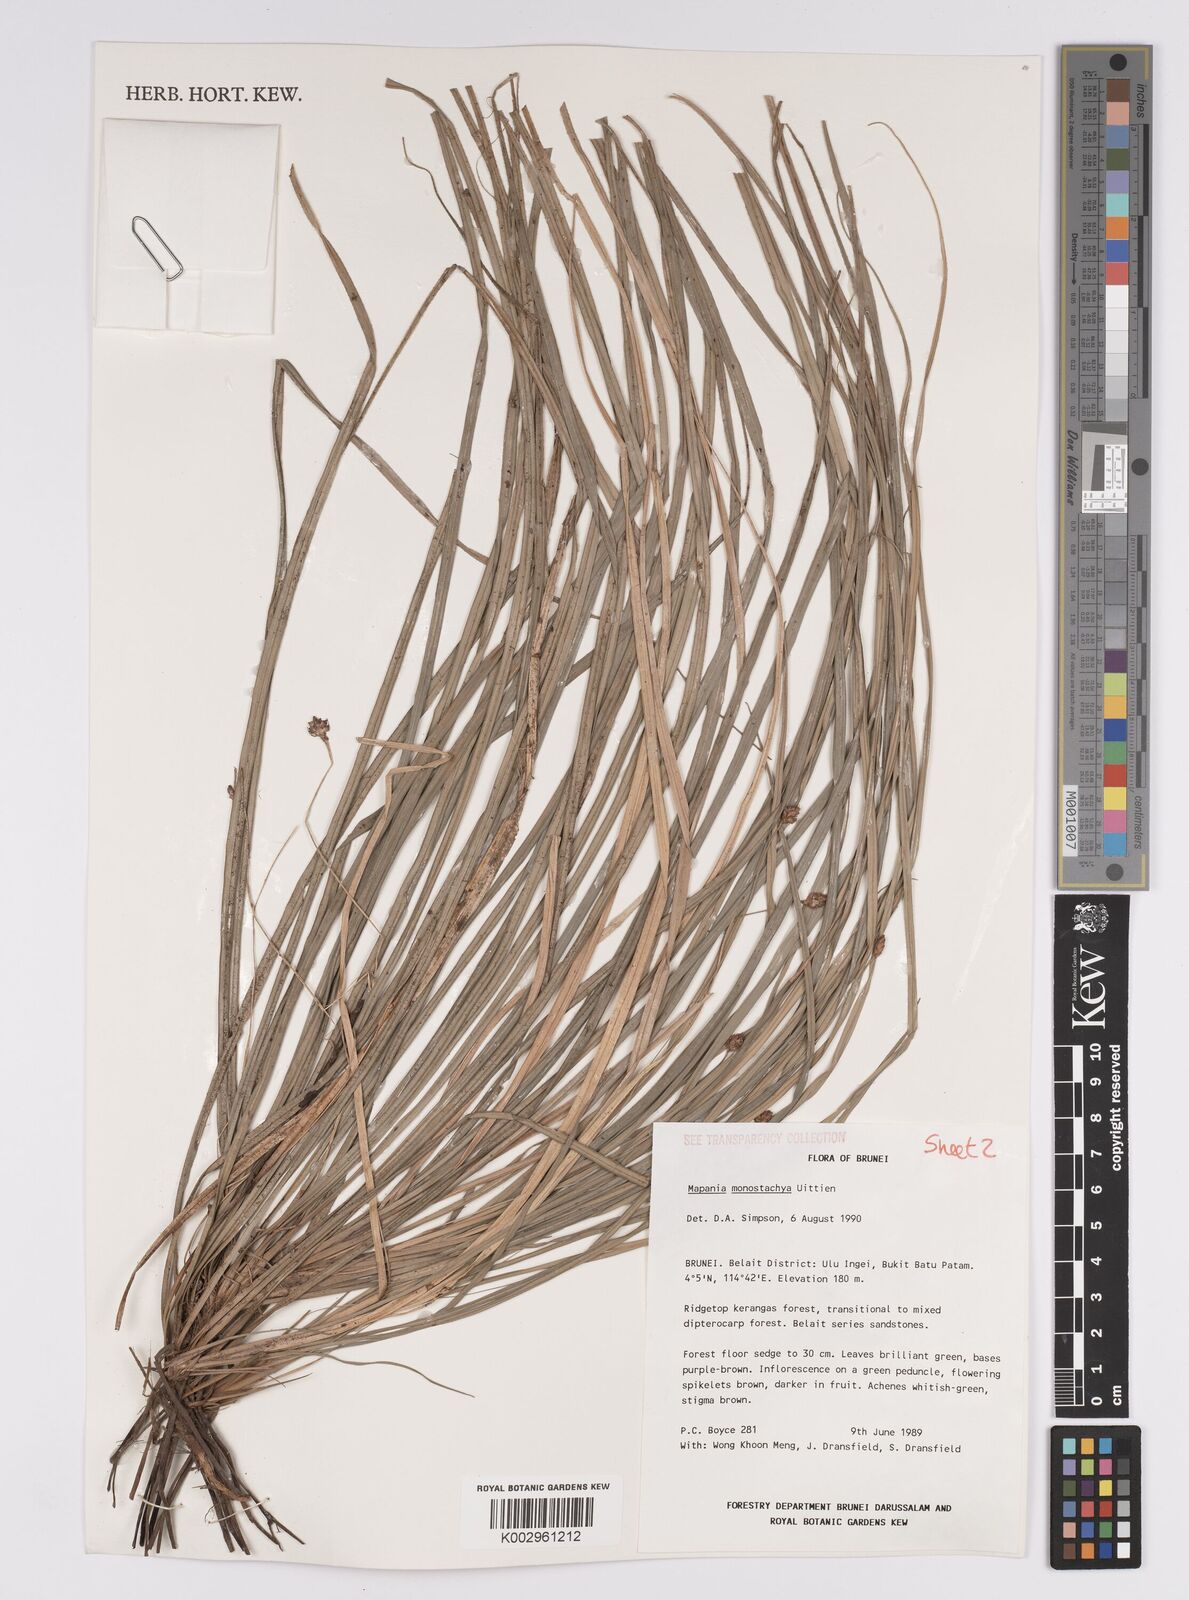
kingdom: Plantae
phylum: Tracheophyta
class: Liliopsida
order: Poales
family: Cyperaceae
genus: Mapania
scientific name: Mapania monostachya
